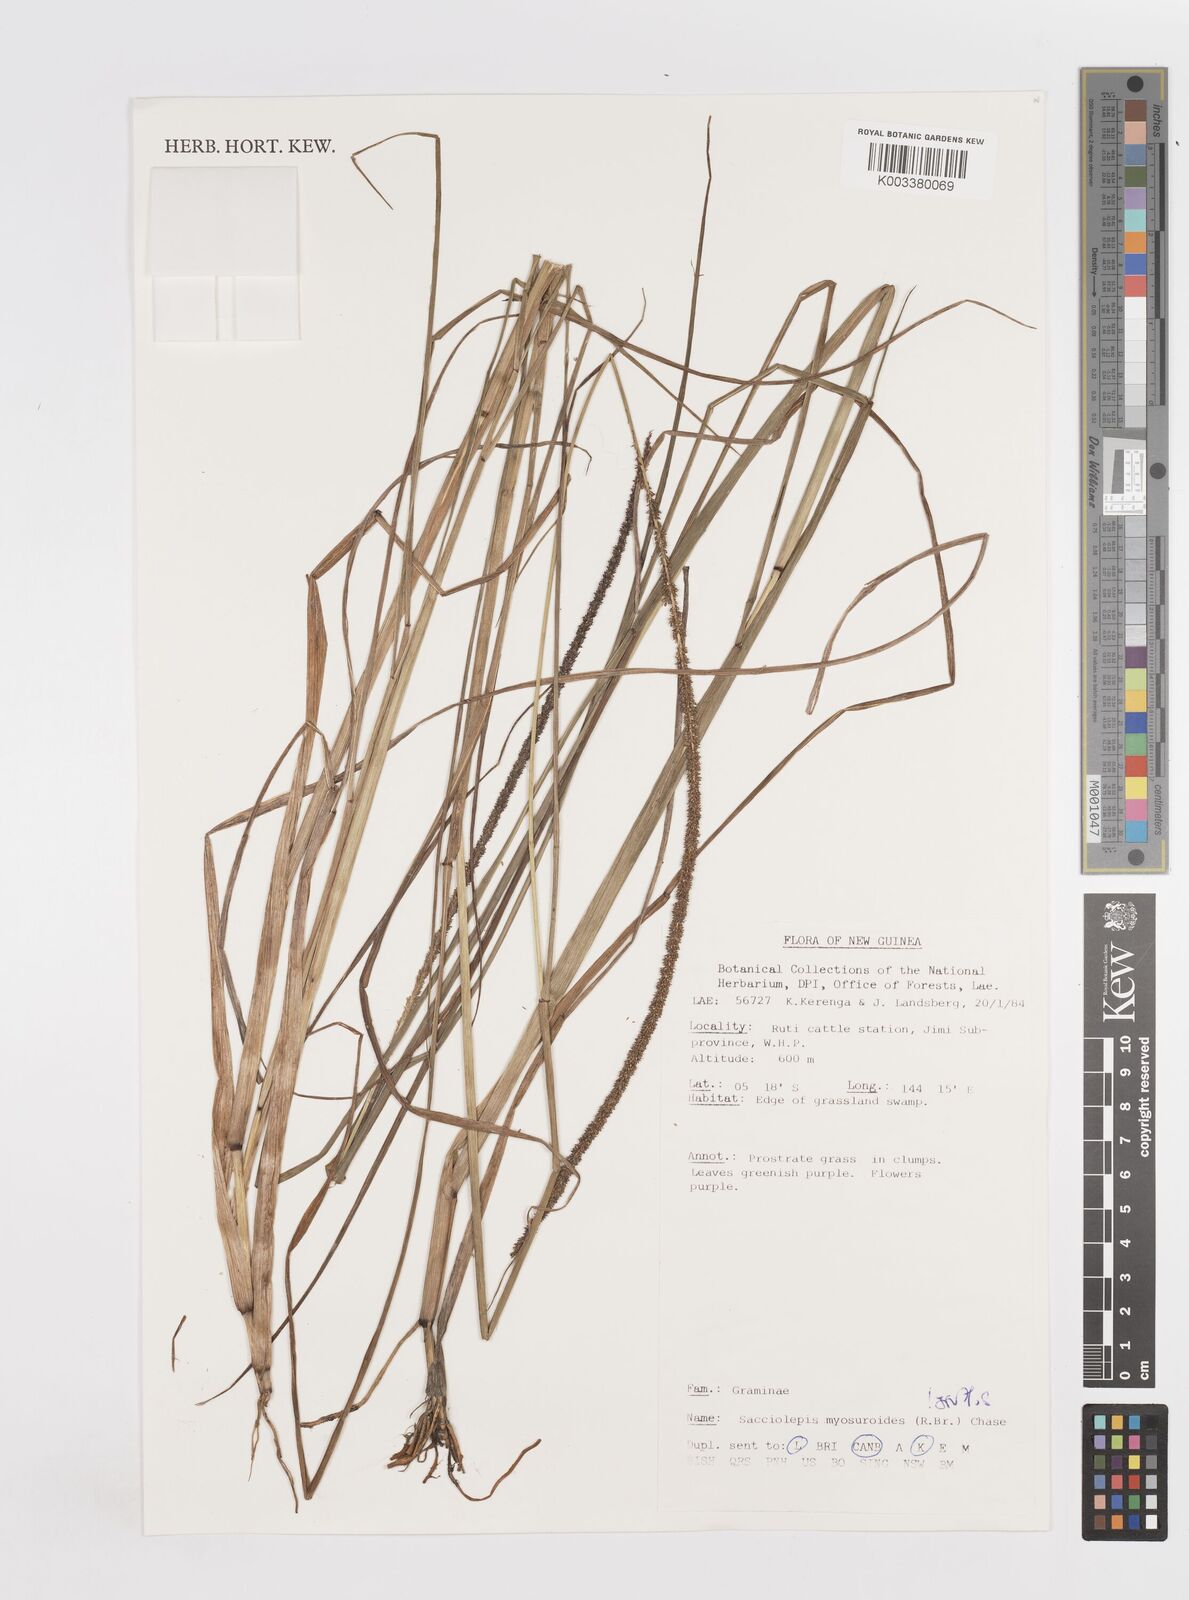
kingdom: Plantae
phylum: Tracheophyta
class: Liliopsida
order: Poales
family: Poaceae
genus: Sacciolepis
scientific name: Sacciolepis myosuroides
